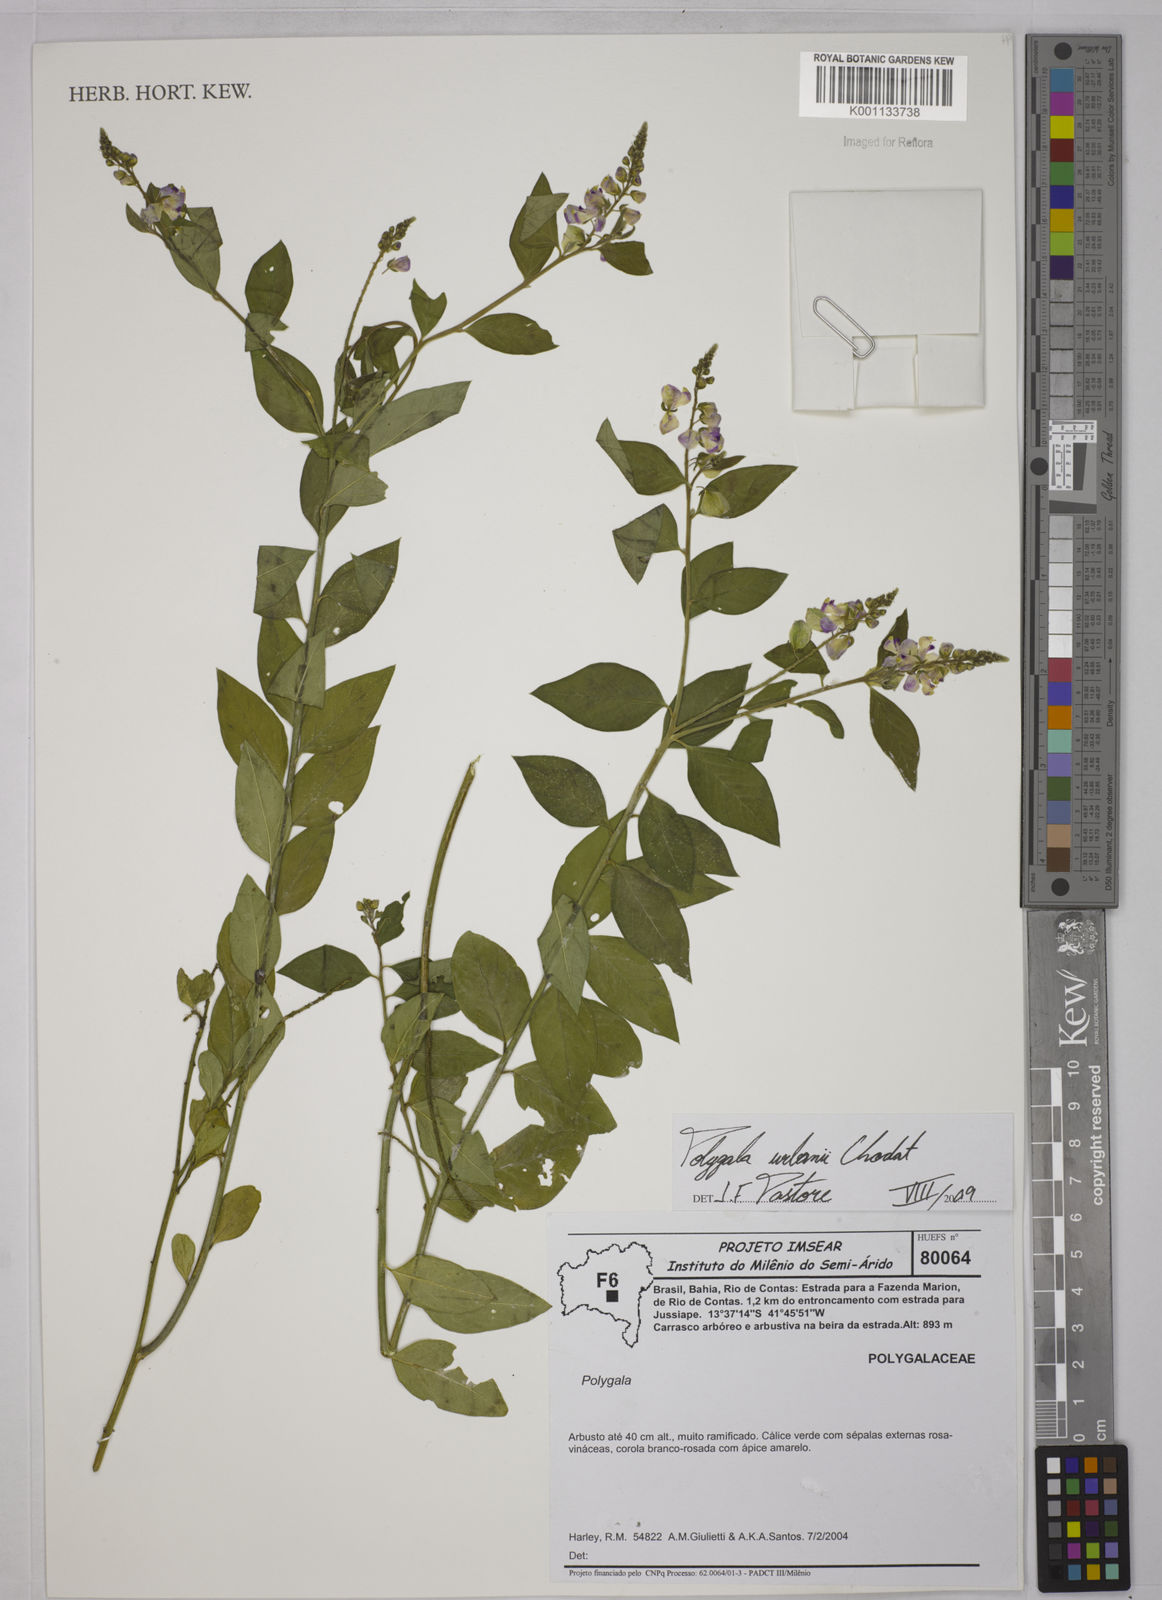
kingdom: Plantae
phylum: Tracheophyta
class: Magnoliopsida
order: Fabales
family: Polygalaceae
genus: Asemeia
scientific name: Asemeia monninoides
